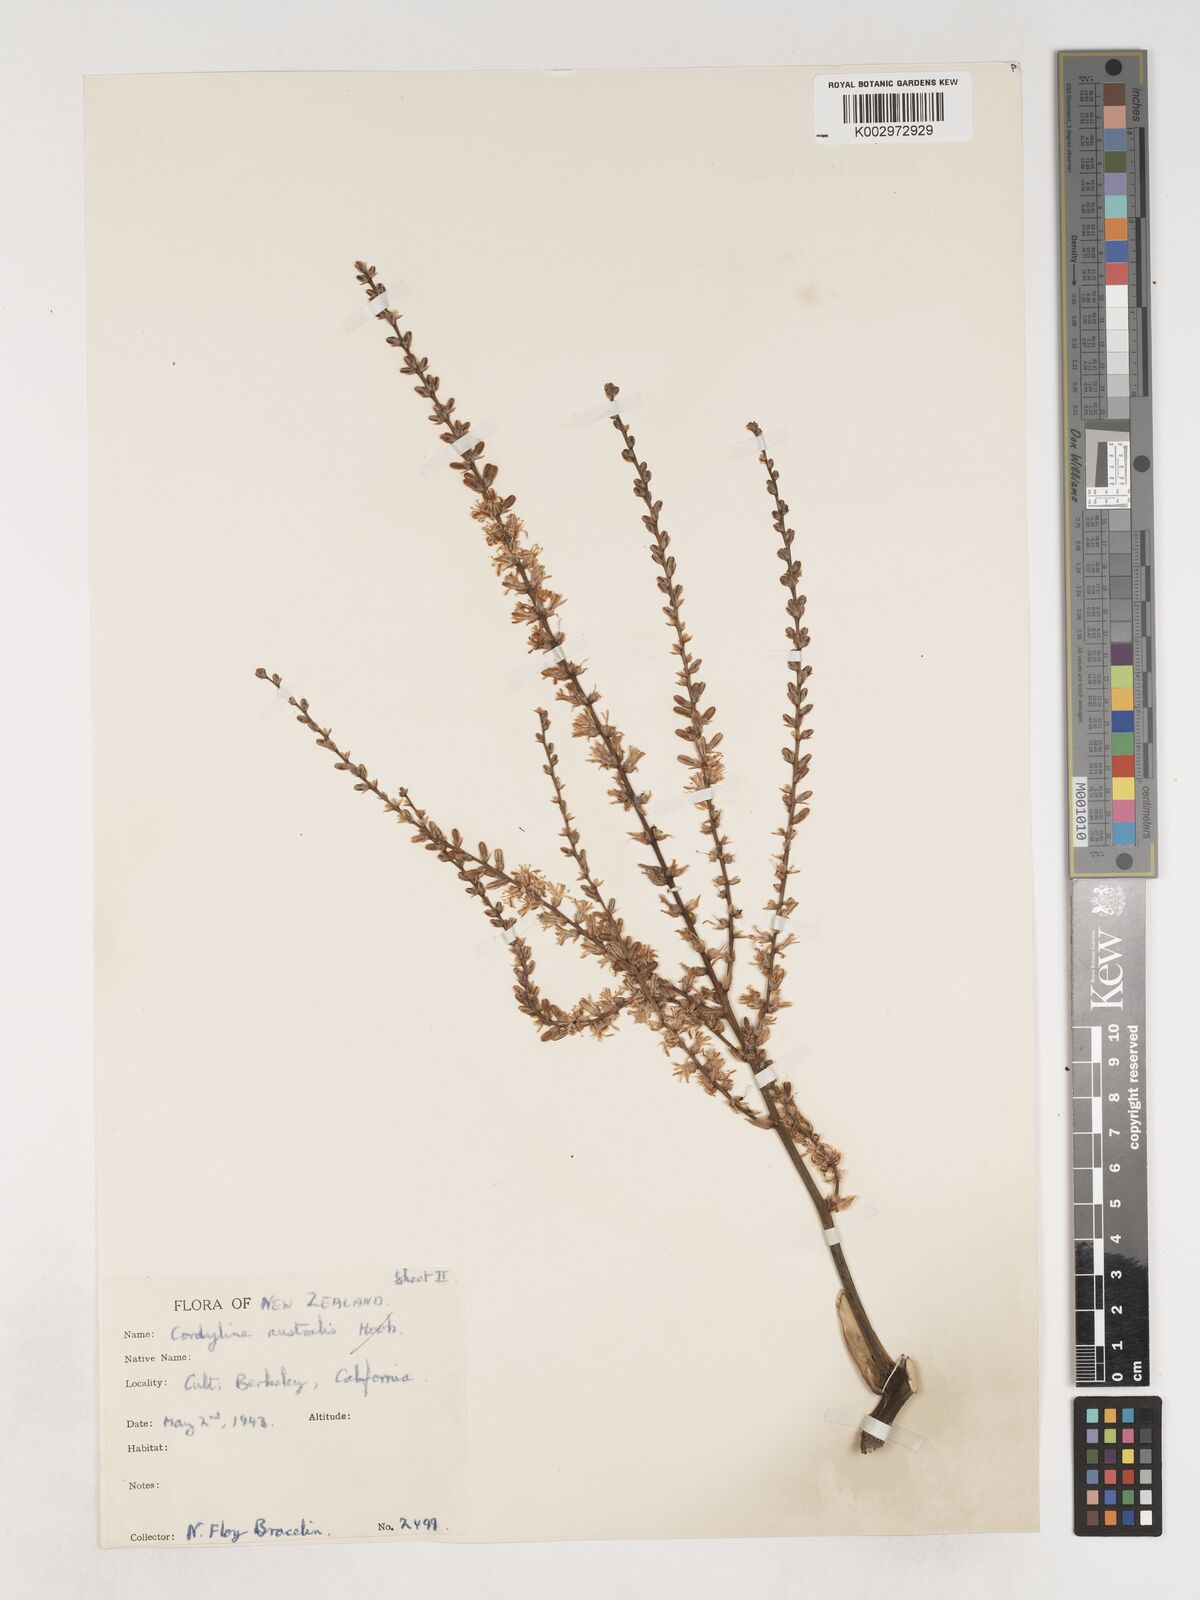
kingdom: Plantae
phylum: Tracheophyta
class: Liliopsida
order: Asparagales
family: Asparagaceae
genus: Cordyline
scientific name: Cordyline australis
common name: Cabbage-palm
